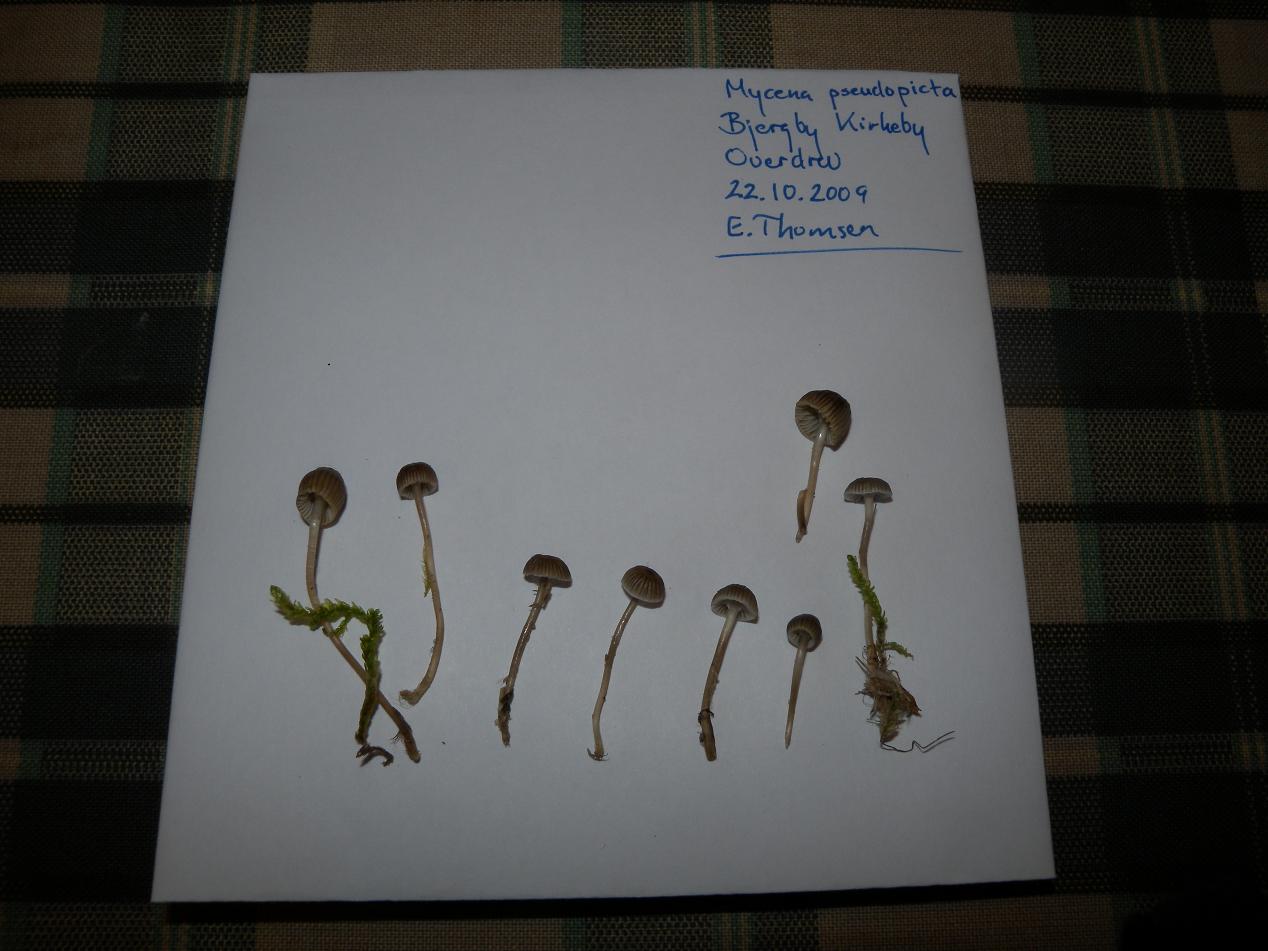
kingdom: Fungi
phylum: Basidiomycota
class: Agaricomycetes
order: Agaricales
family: Mycenaceae
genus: Mycena
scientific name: Mycena vulgaris
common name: klæbrig huesvamp
